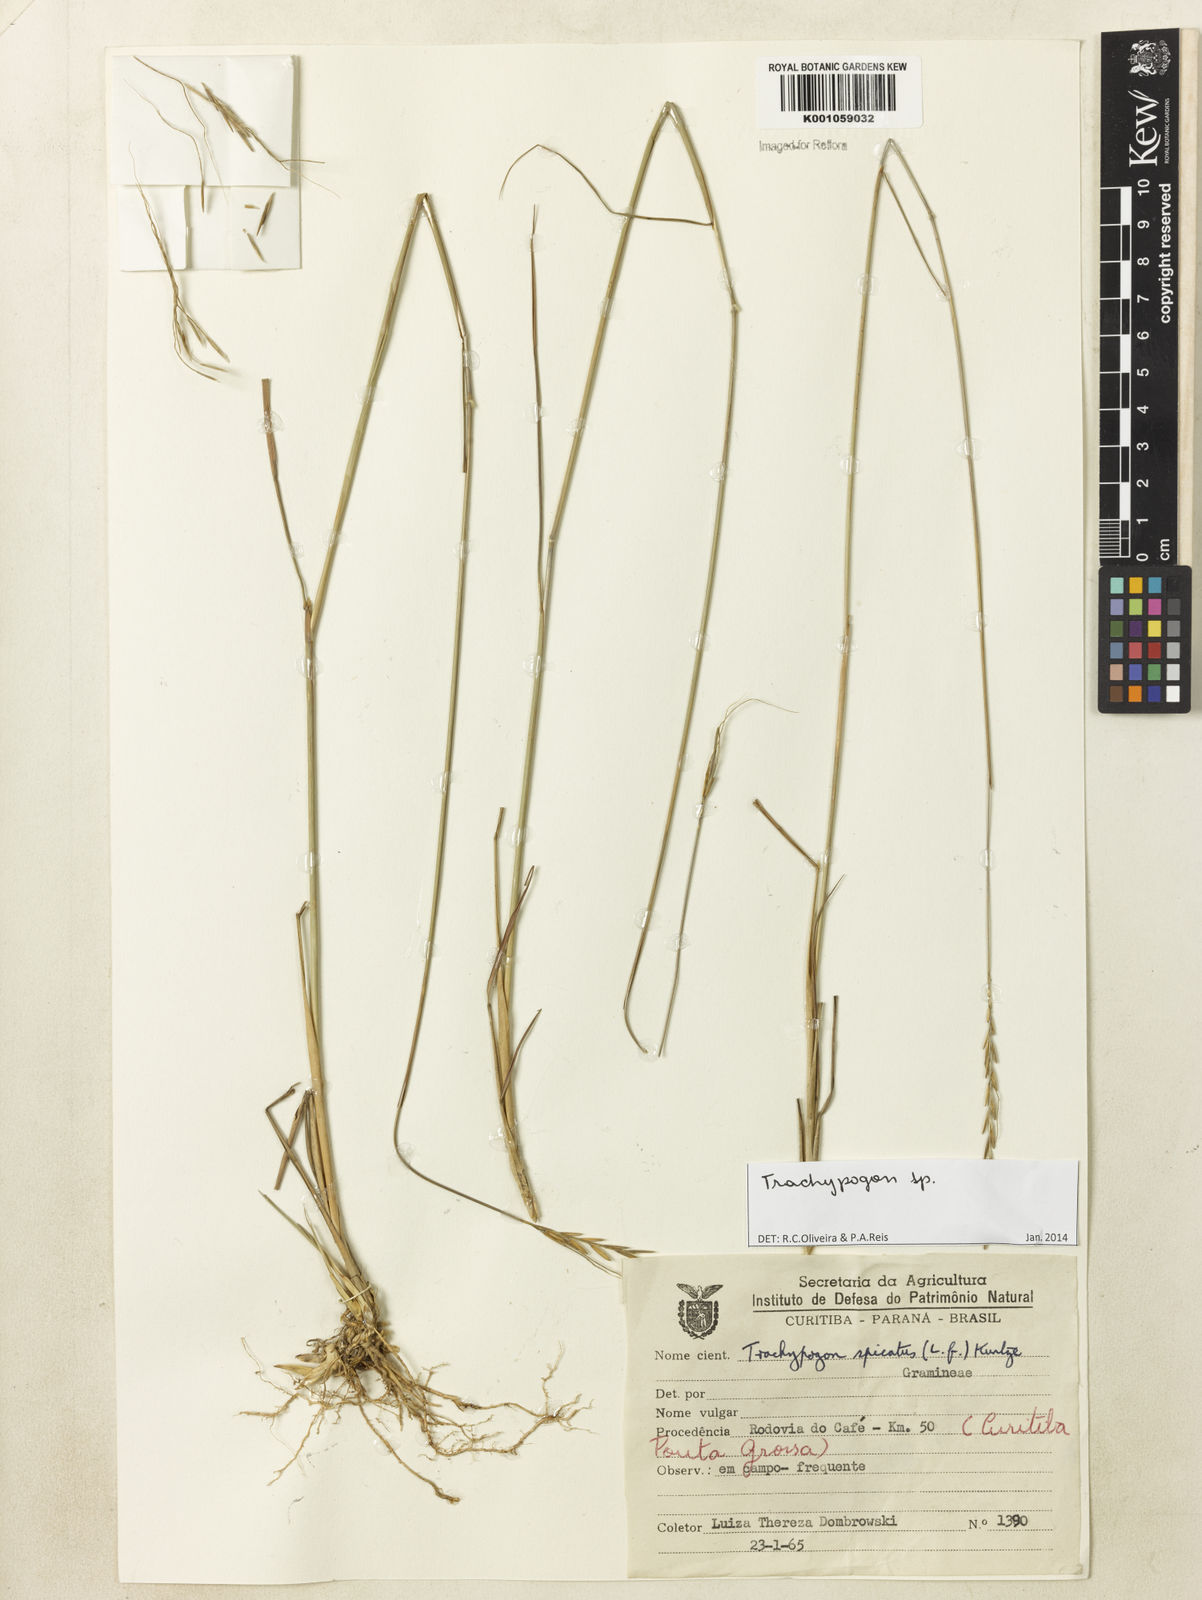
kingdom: Plantae
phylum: Tracheophyta
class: Liliopsida
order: Poales
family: Poaceae
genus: Trachypogon
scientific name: Trachypogon
